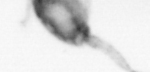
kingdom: Animalia
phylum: Arthropoda
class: Copepoda
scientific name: Copepoda
